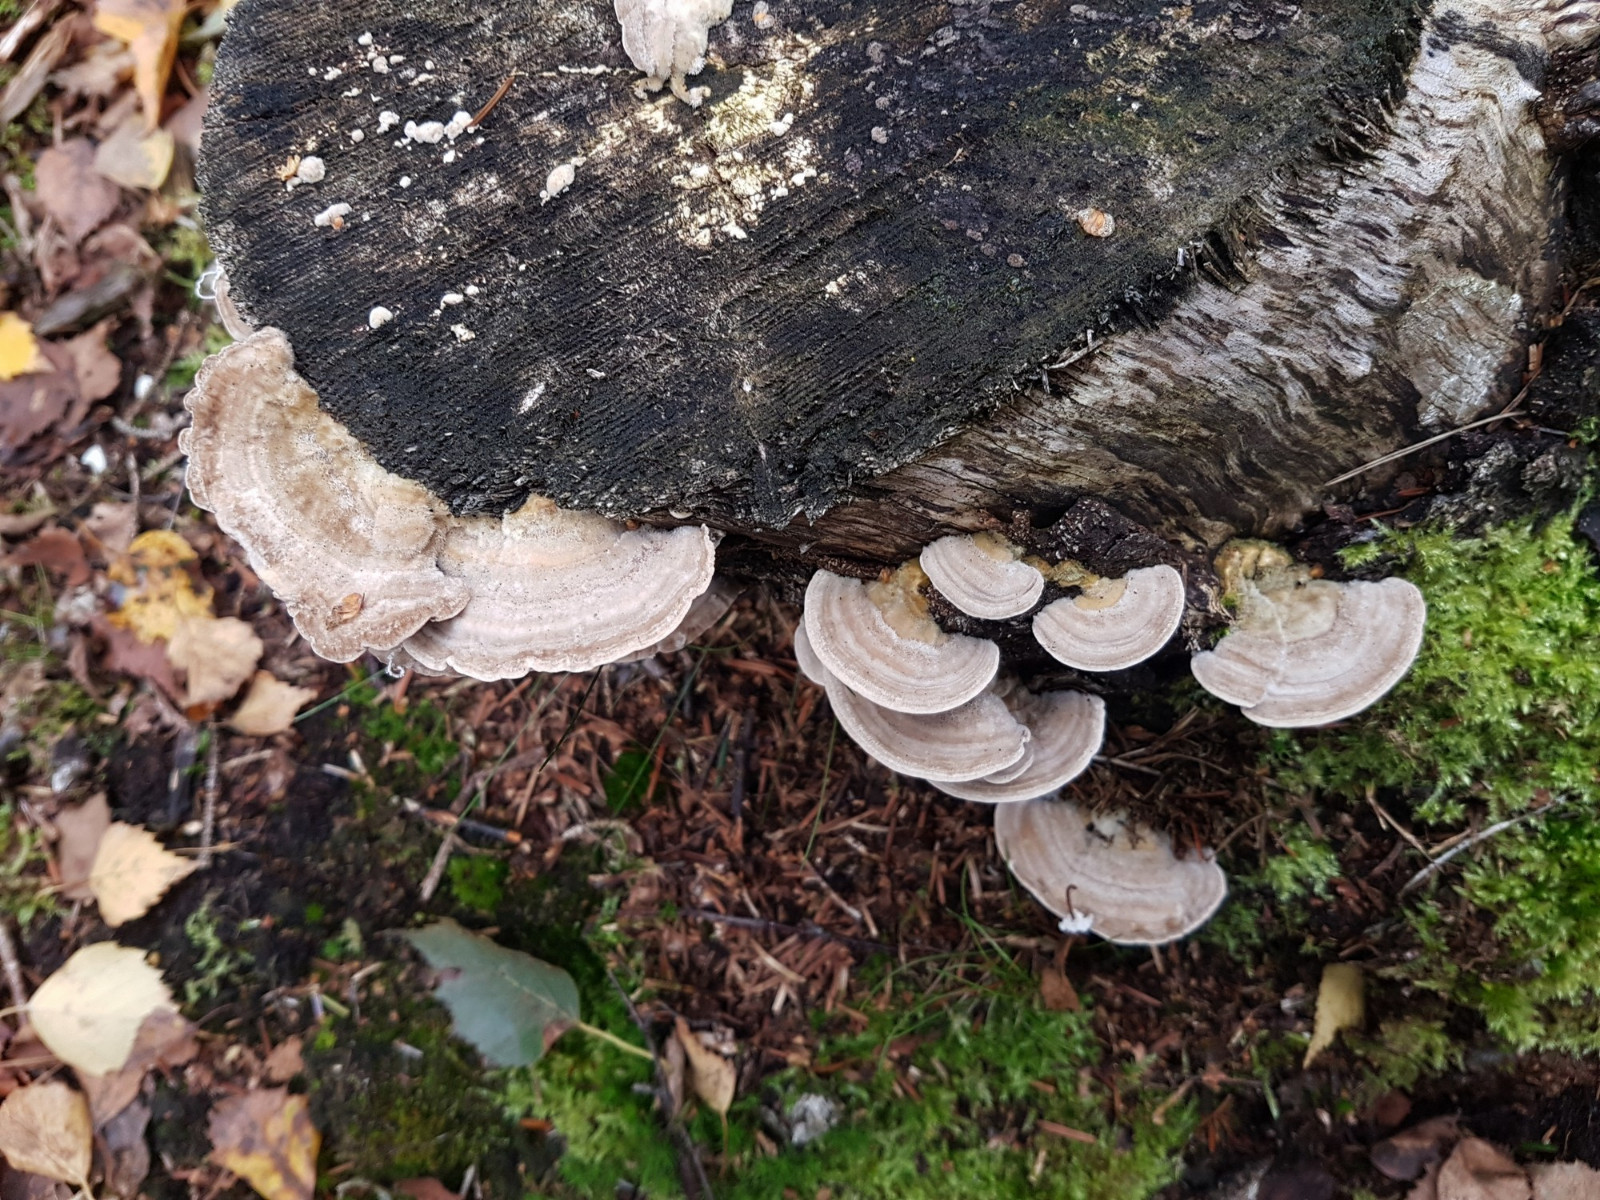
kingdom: Fungi
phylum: Basidiomycota
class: Agaricomycetes
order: Polyporales
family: Fomitopsidaceae
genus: Daedalea
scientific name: Daedalea quercina
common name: ege-labyrintsvamp
